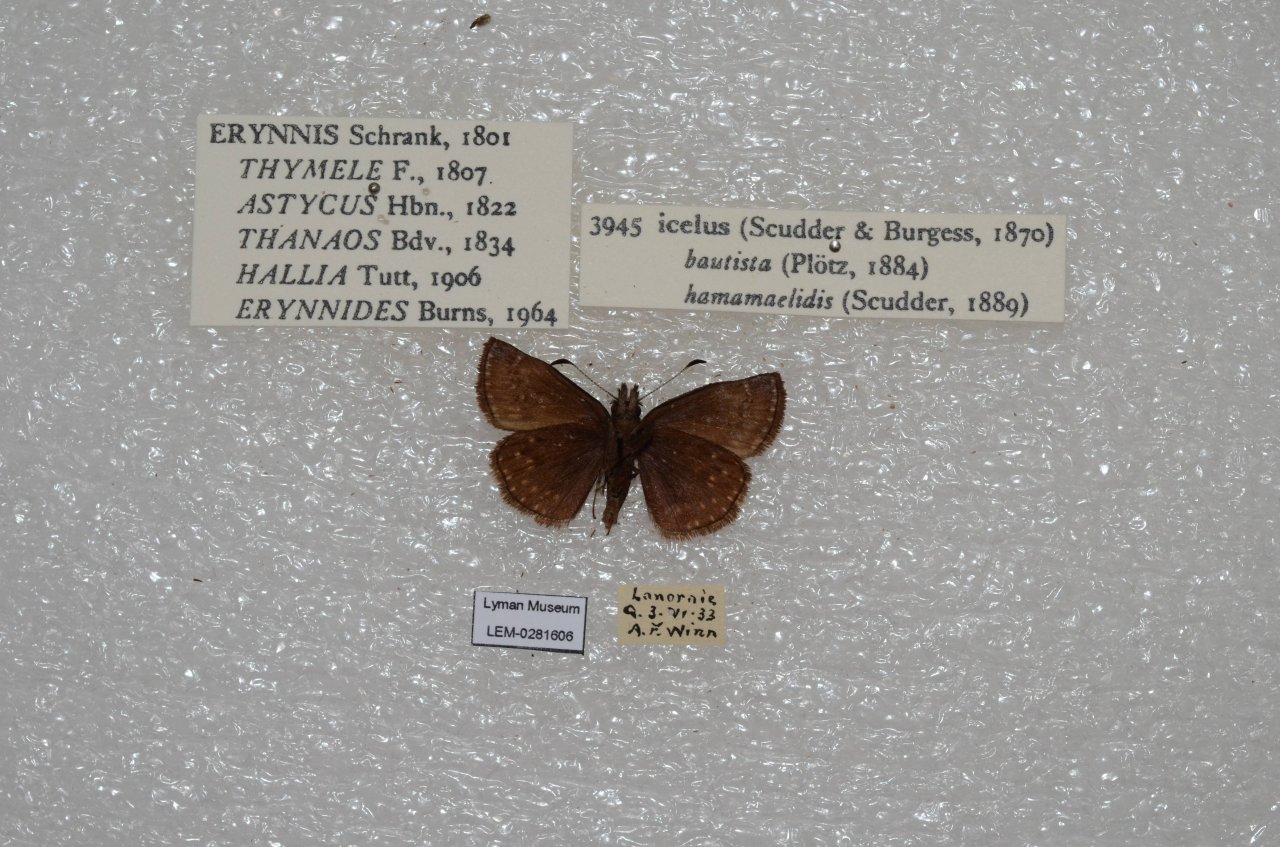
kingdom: Animalia
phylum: Arthropoda
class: Insecta
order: Lepidoptera
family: Hesperiidae
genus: Erynnis
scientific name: Erynnis icelus
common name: Dreamy Duskywing
